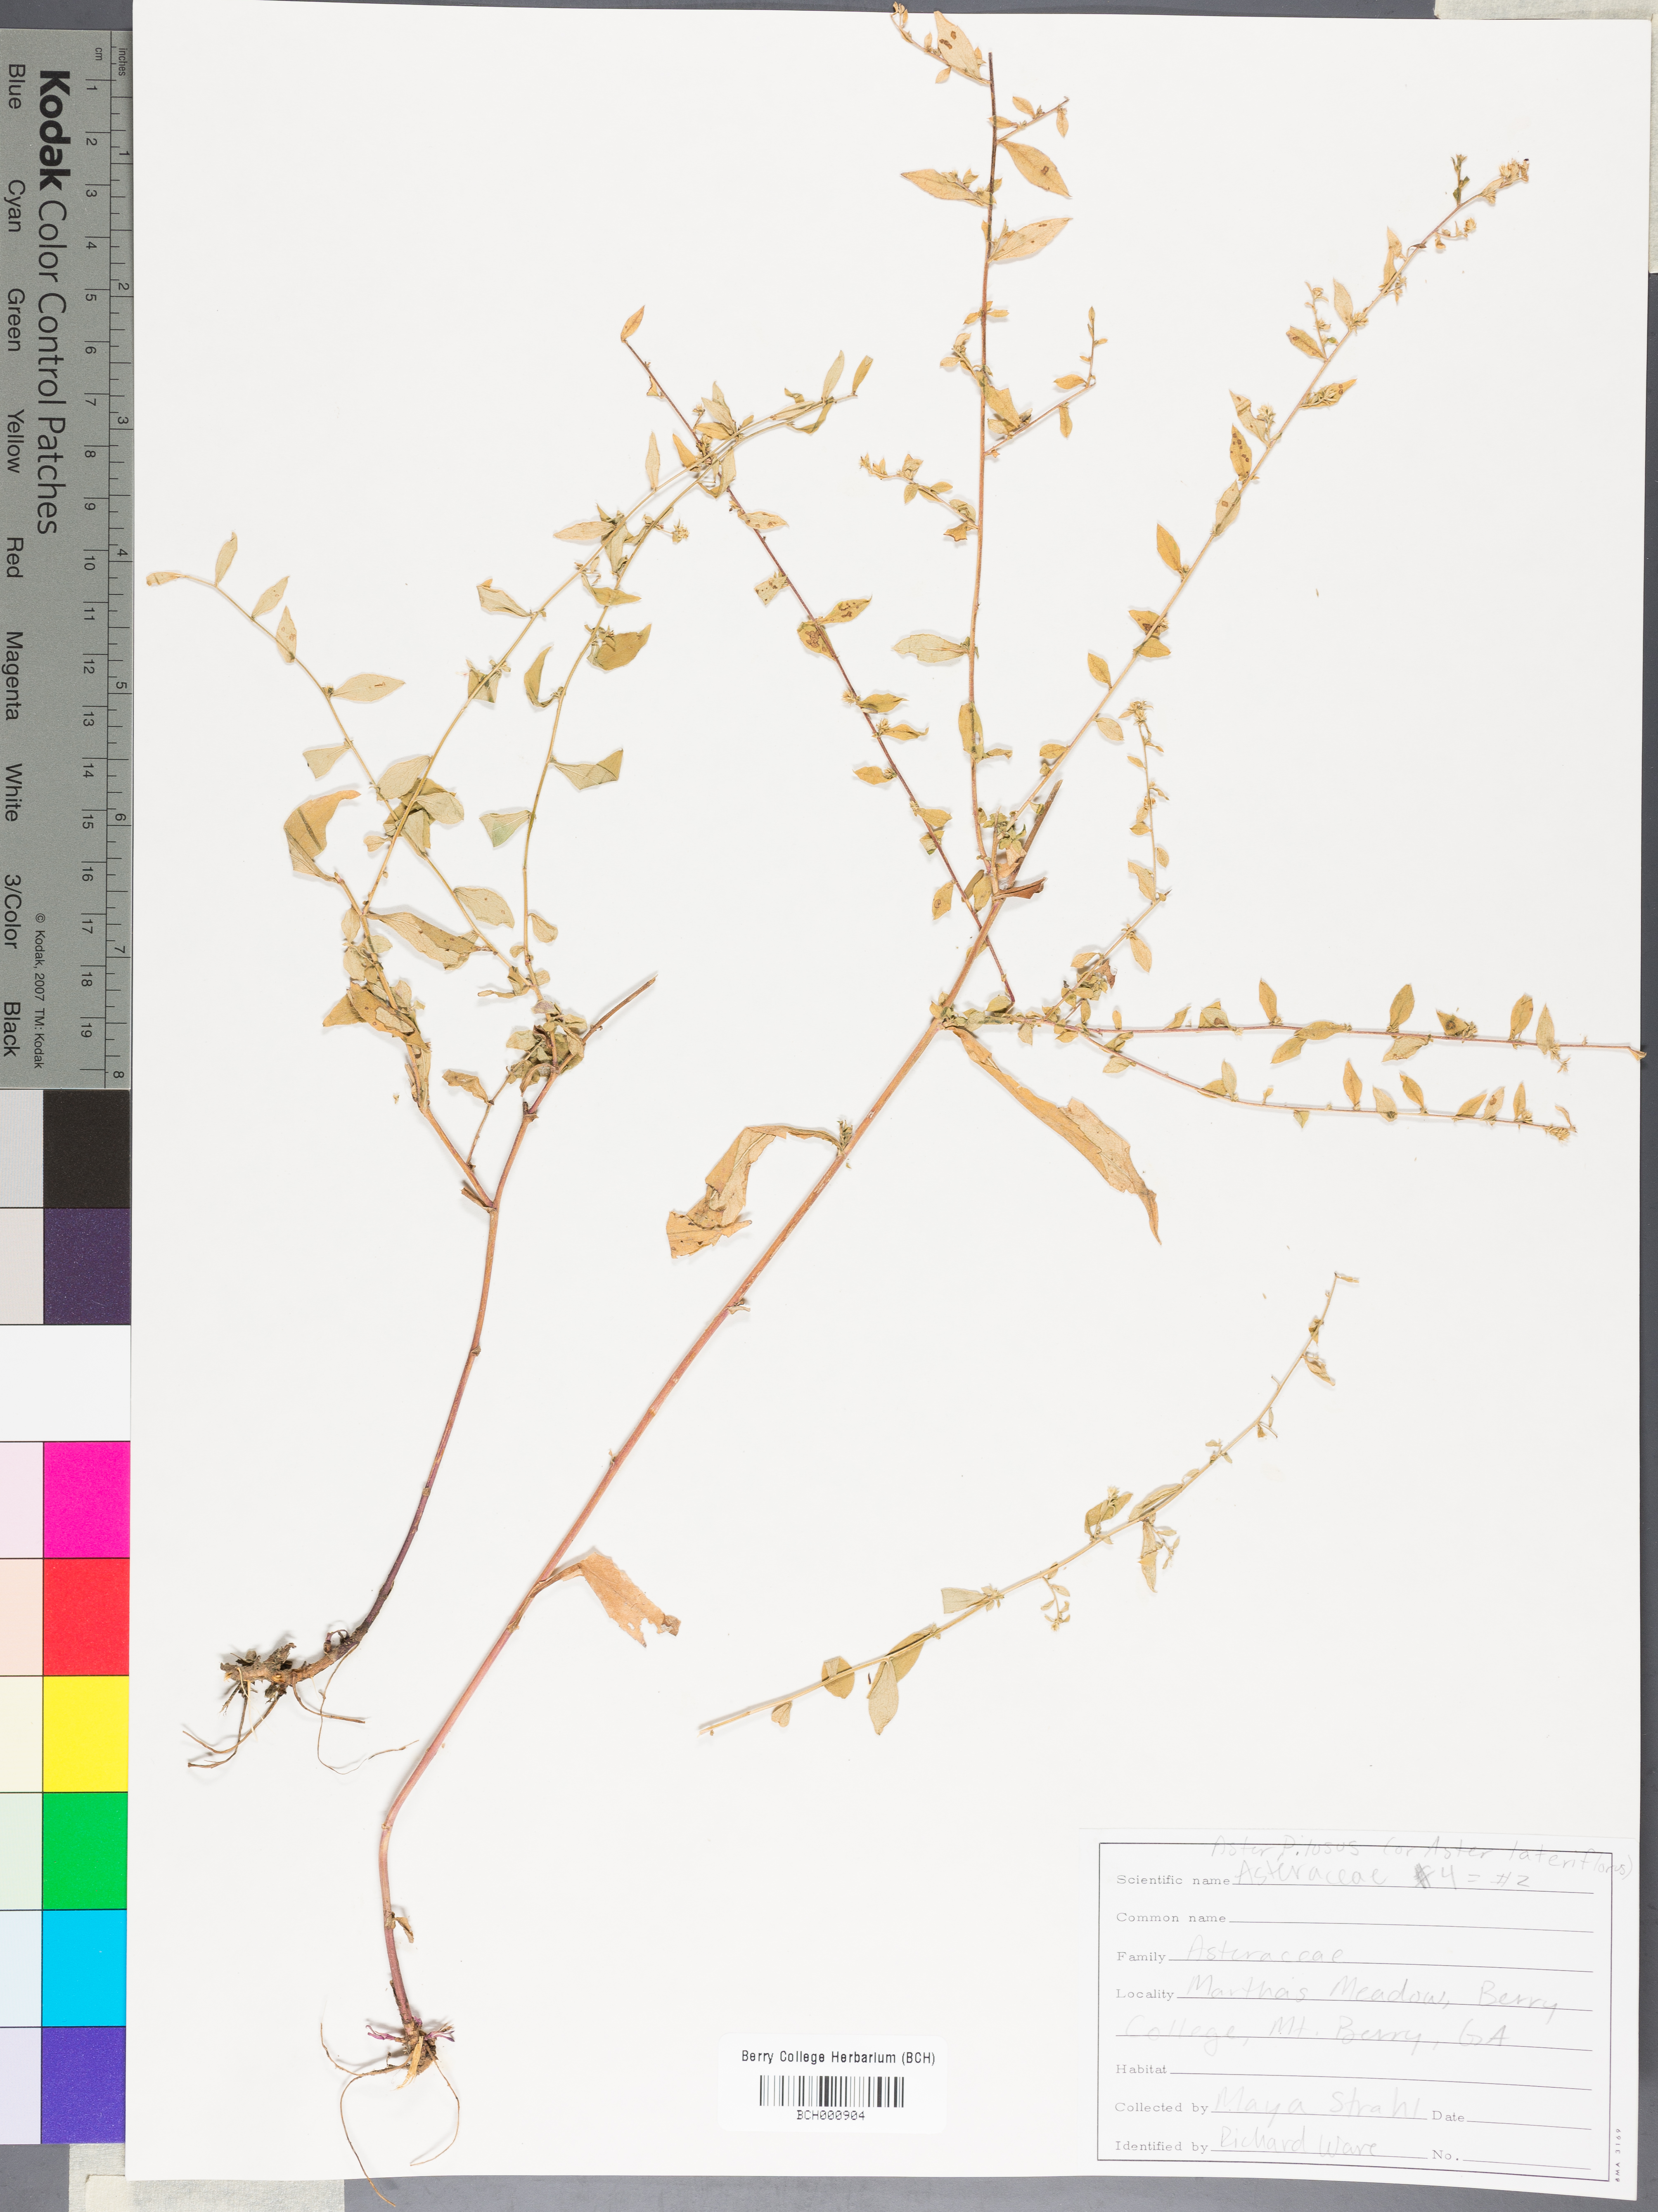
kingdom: Plantae
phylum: Tracheophyta
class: Magnoliopsida
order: Lamiales
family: Acanthaceae
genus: Adhatoda
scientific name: Adhatoda
